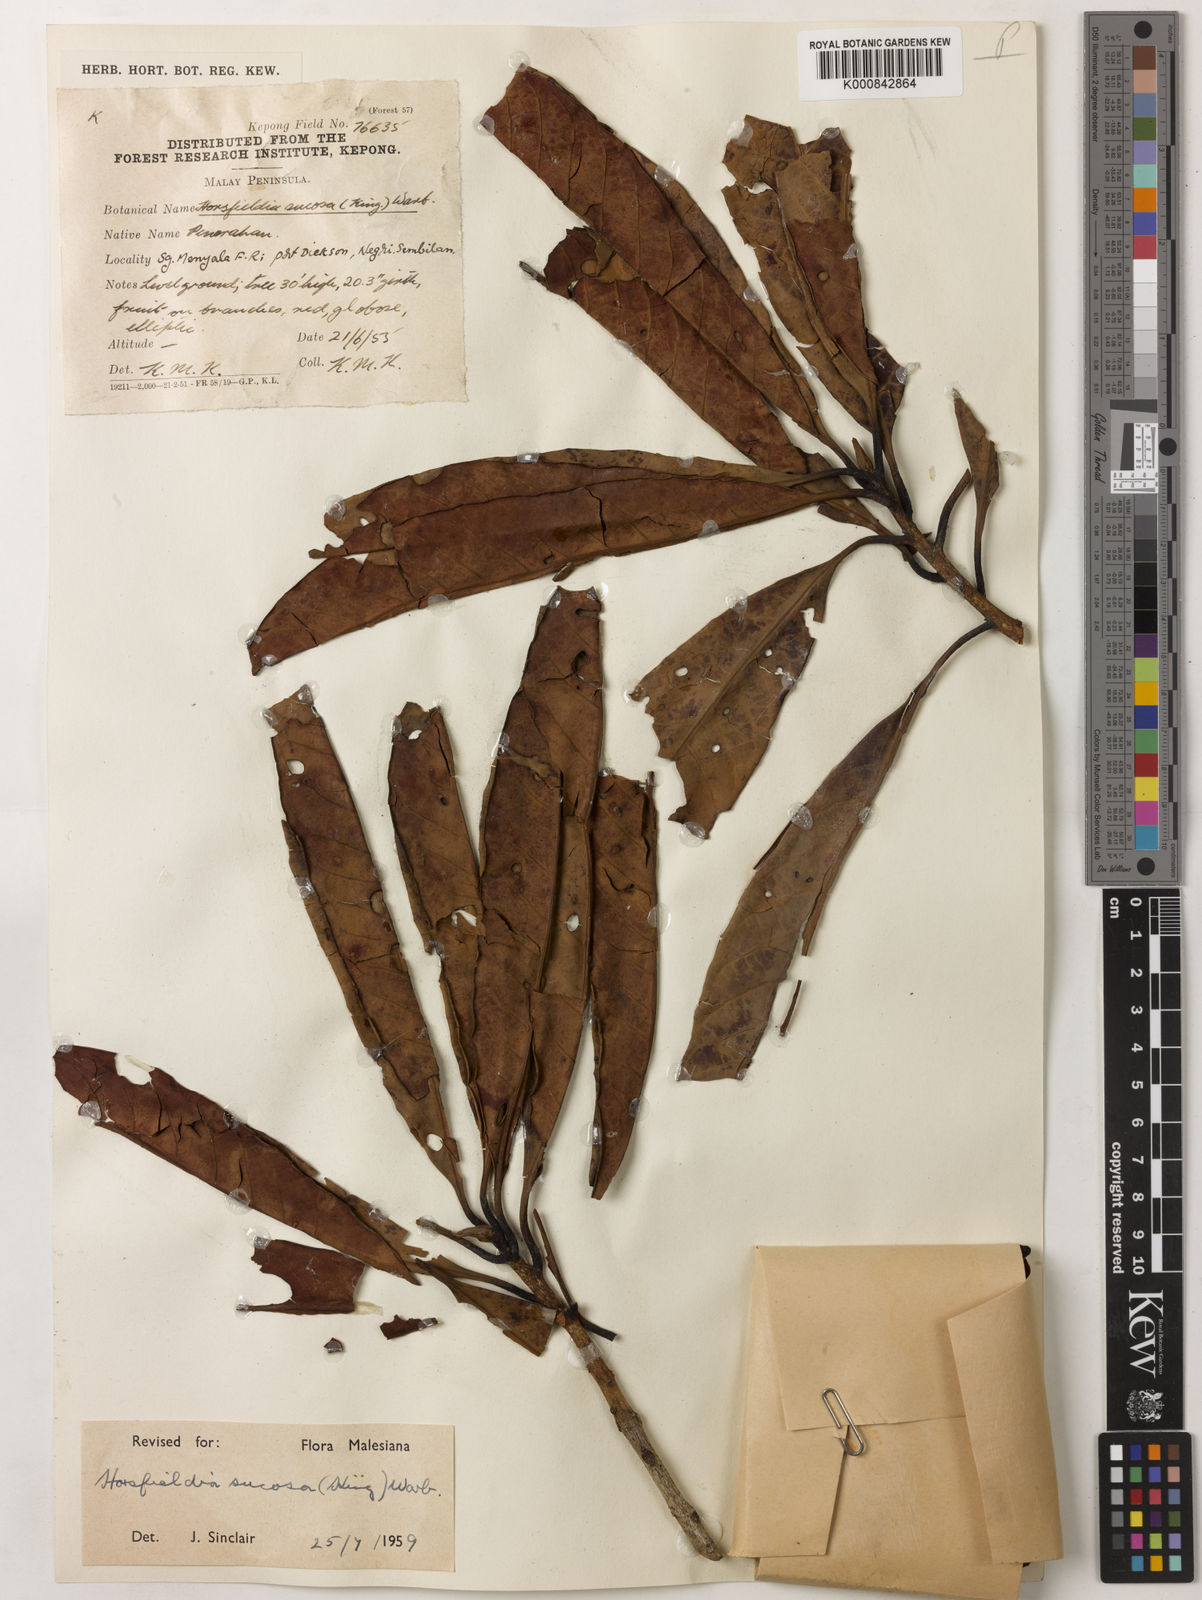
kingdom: Plantae
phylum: Tracheophyta
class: Magnoliopsida
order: Magnoliales
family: Myristicaceae
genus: Horsfieldia
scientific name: Horsfieldia sucosa
